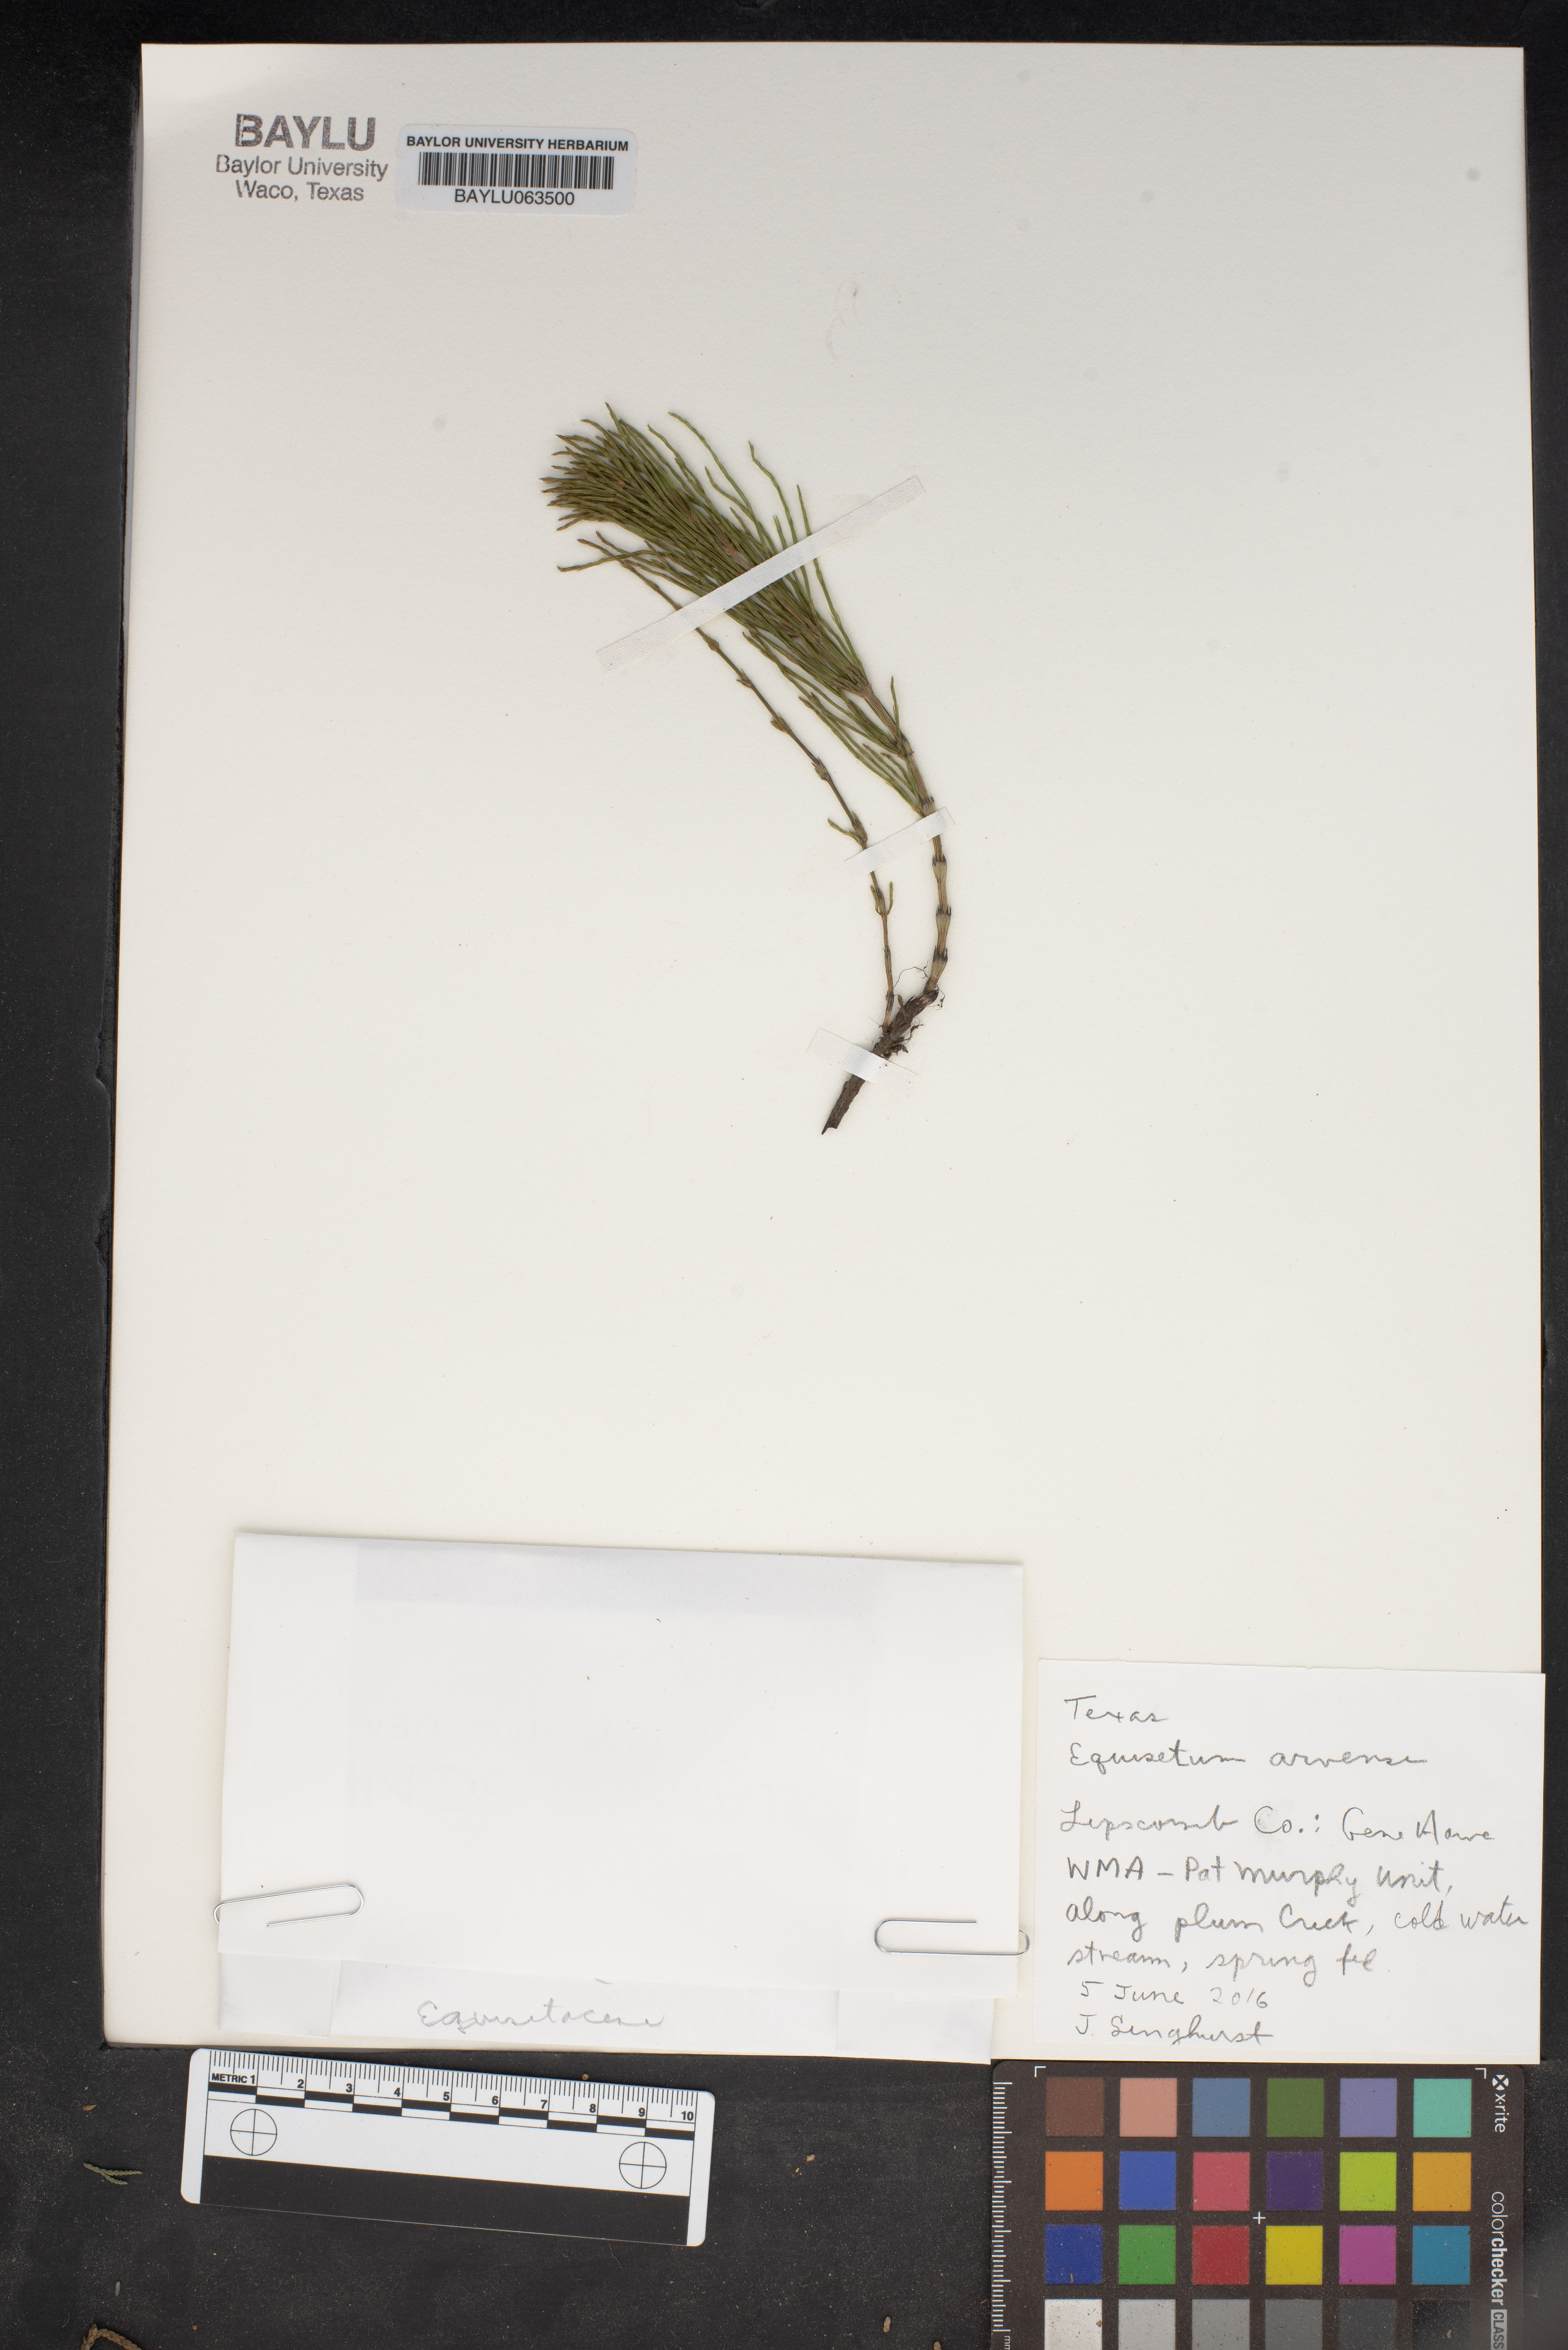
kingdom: Plantae
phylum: Tracheophyta
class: Polypodiopsida
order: Equisetales
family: Equisetaceae
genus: Equisetum
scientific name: Equisetum arvense
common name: Field horsetail
